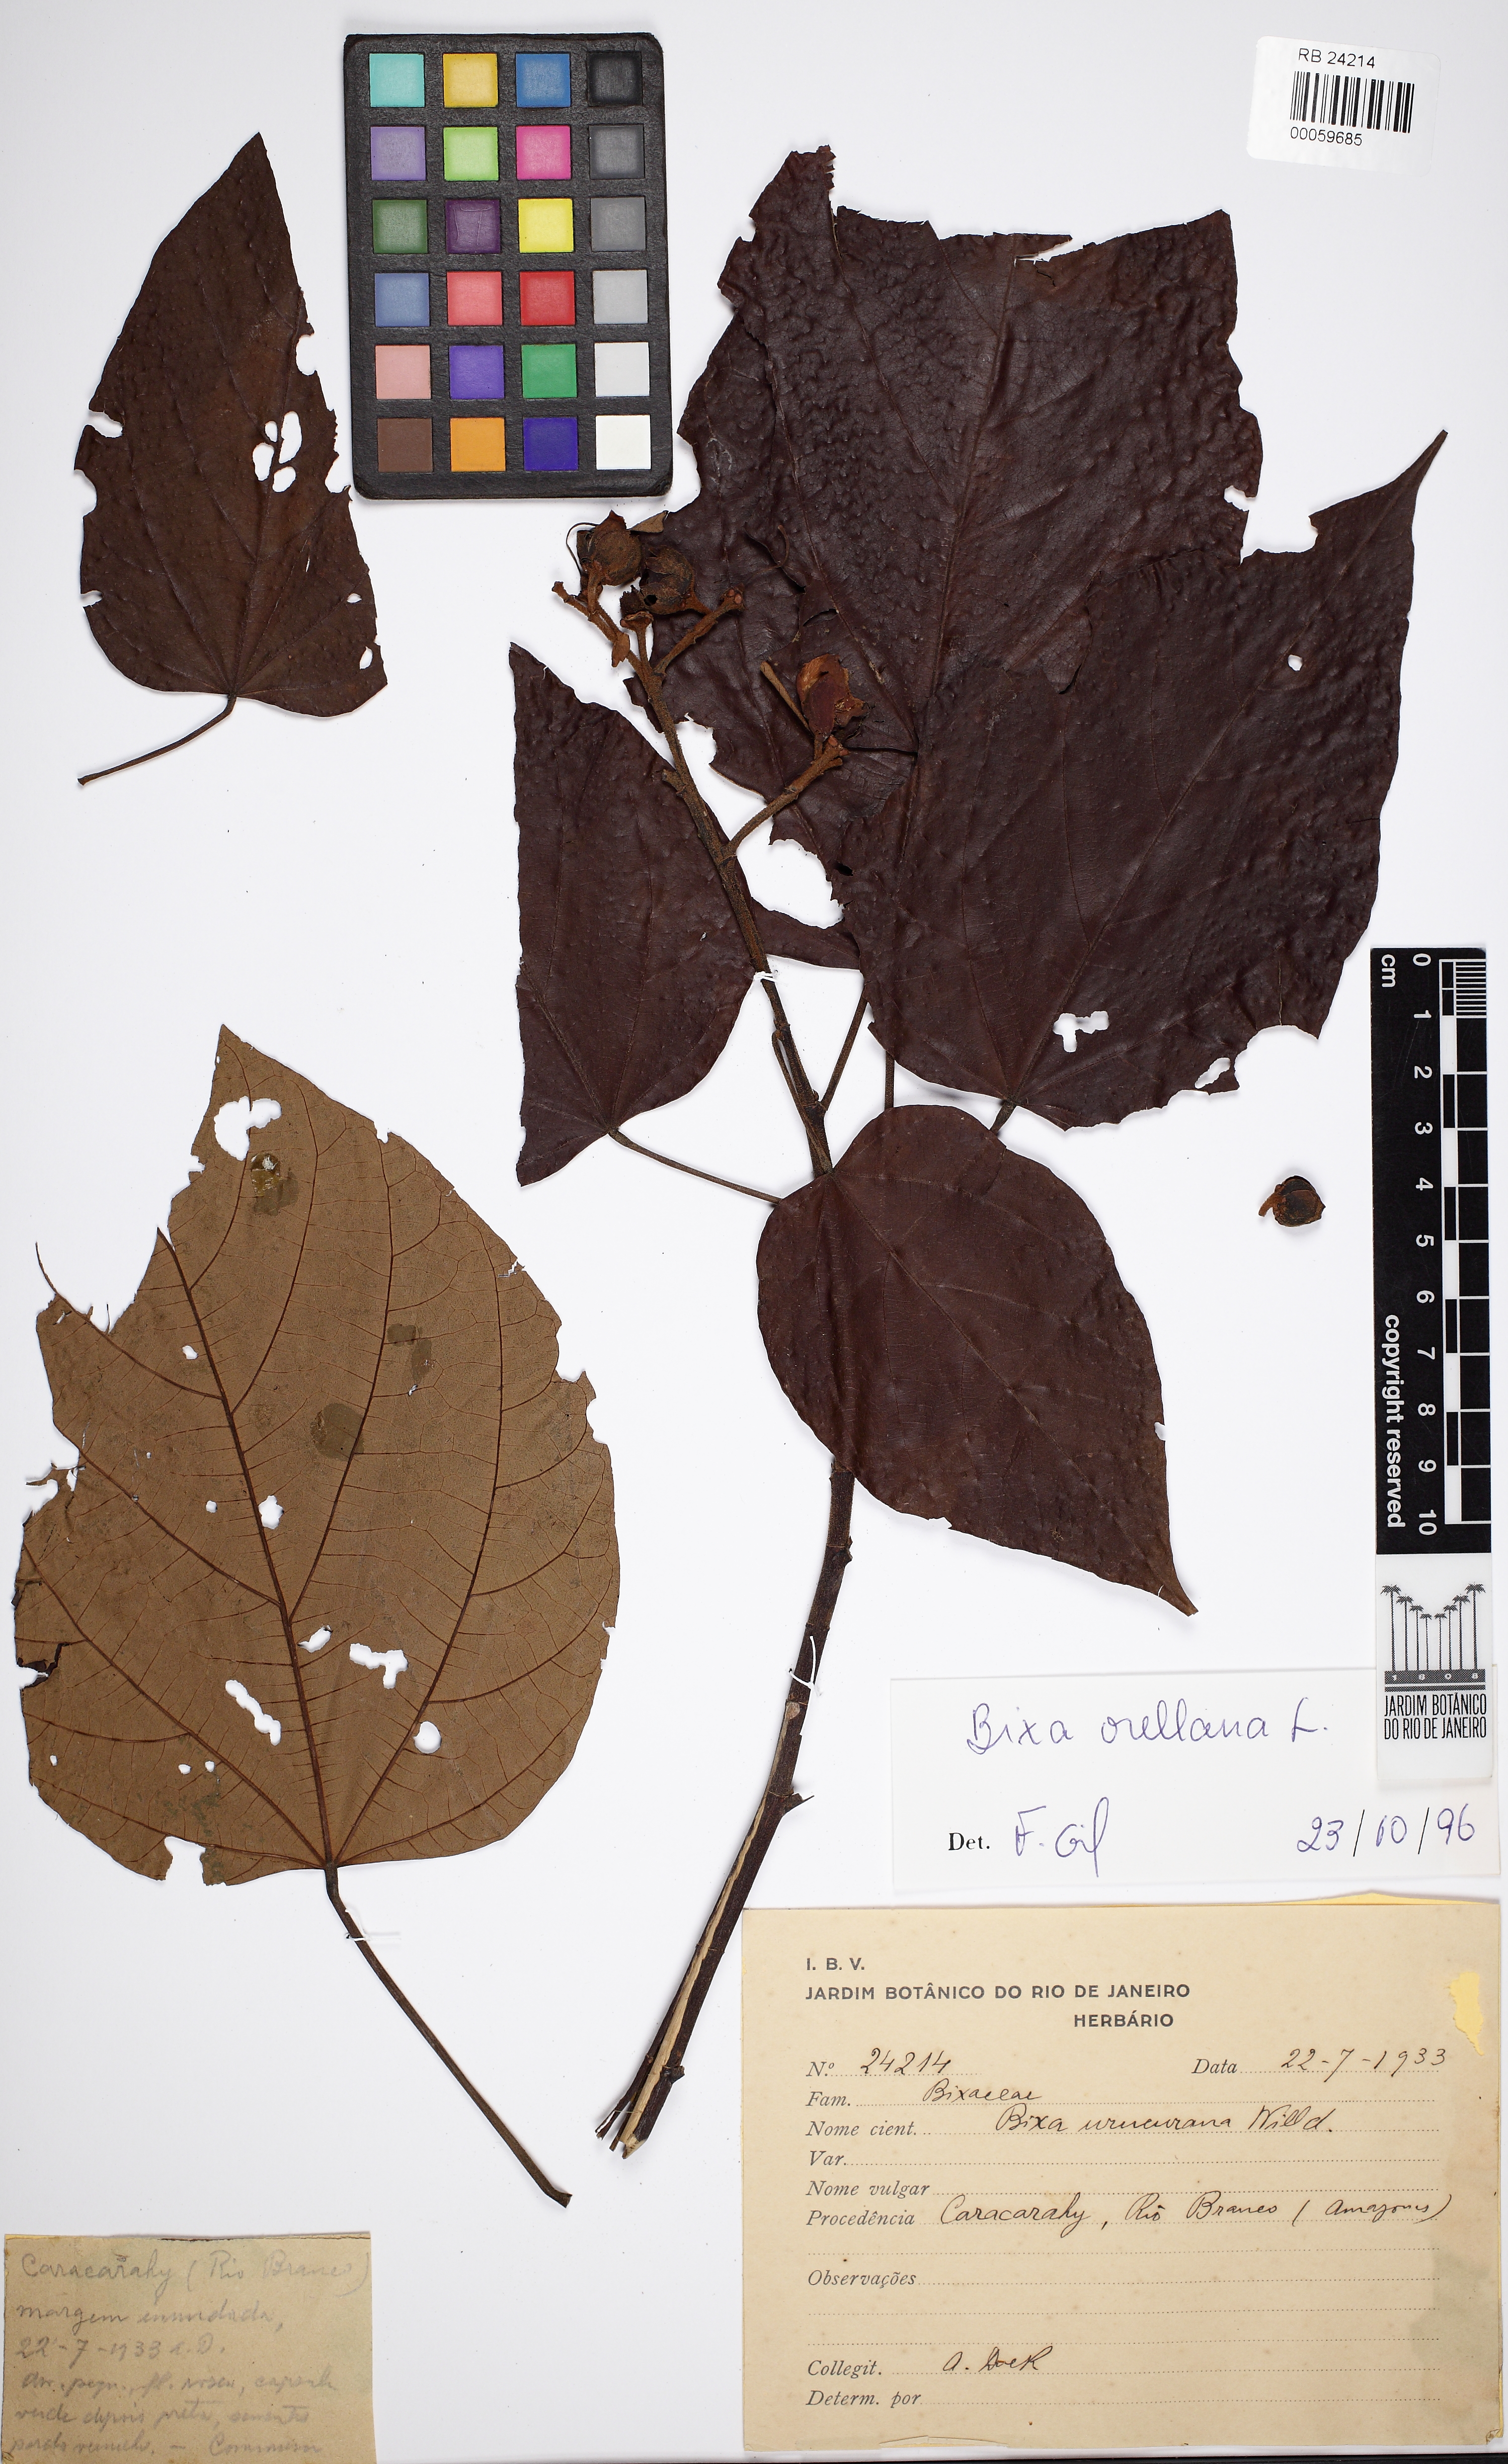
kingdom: Plantae
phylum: Tracheophyta
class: Magnoliopsida
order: Malvales
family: Bixaceae
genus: Bixa
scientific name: Bixa orellana
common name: Lipsticktree
